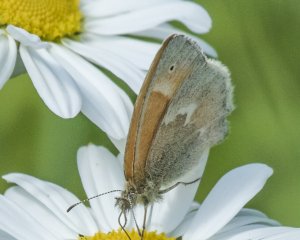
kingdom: Animalia
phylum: Arthropoda
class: Insecta
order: Lepidoptera
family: Nymphalidae
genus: Coenonympha
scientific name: Coenonympha tullia
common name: Large Heath
